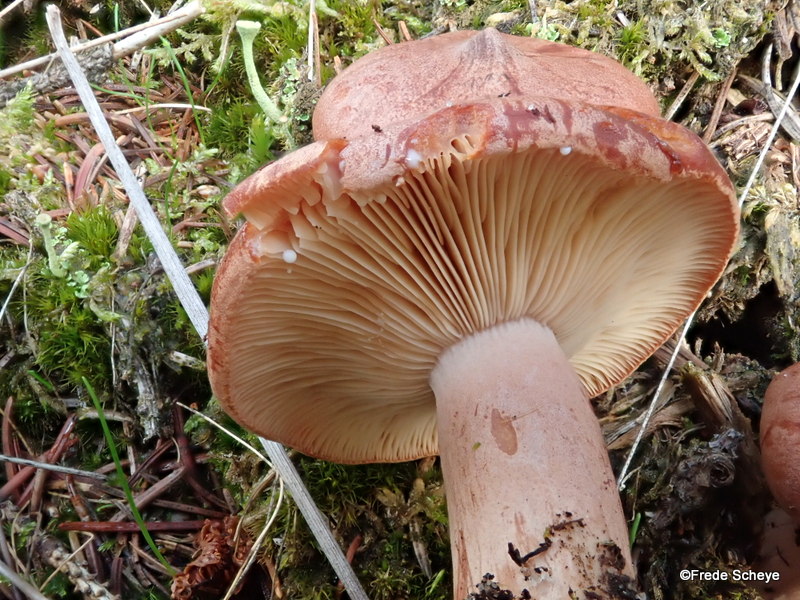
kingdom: Fungi
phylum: Basidiomycota
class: Agaricomycetes
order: Russulales
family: Russulaceae
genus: Lactarius
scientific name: Lactarius rufus
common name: rødbrun mælkehat
